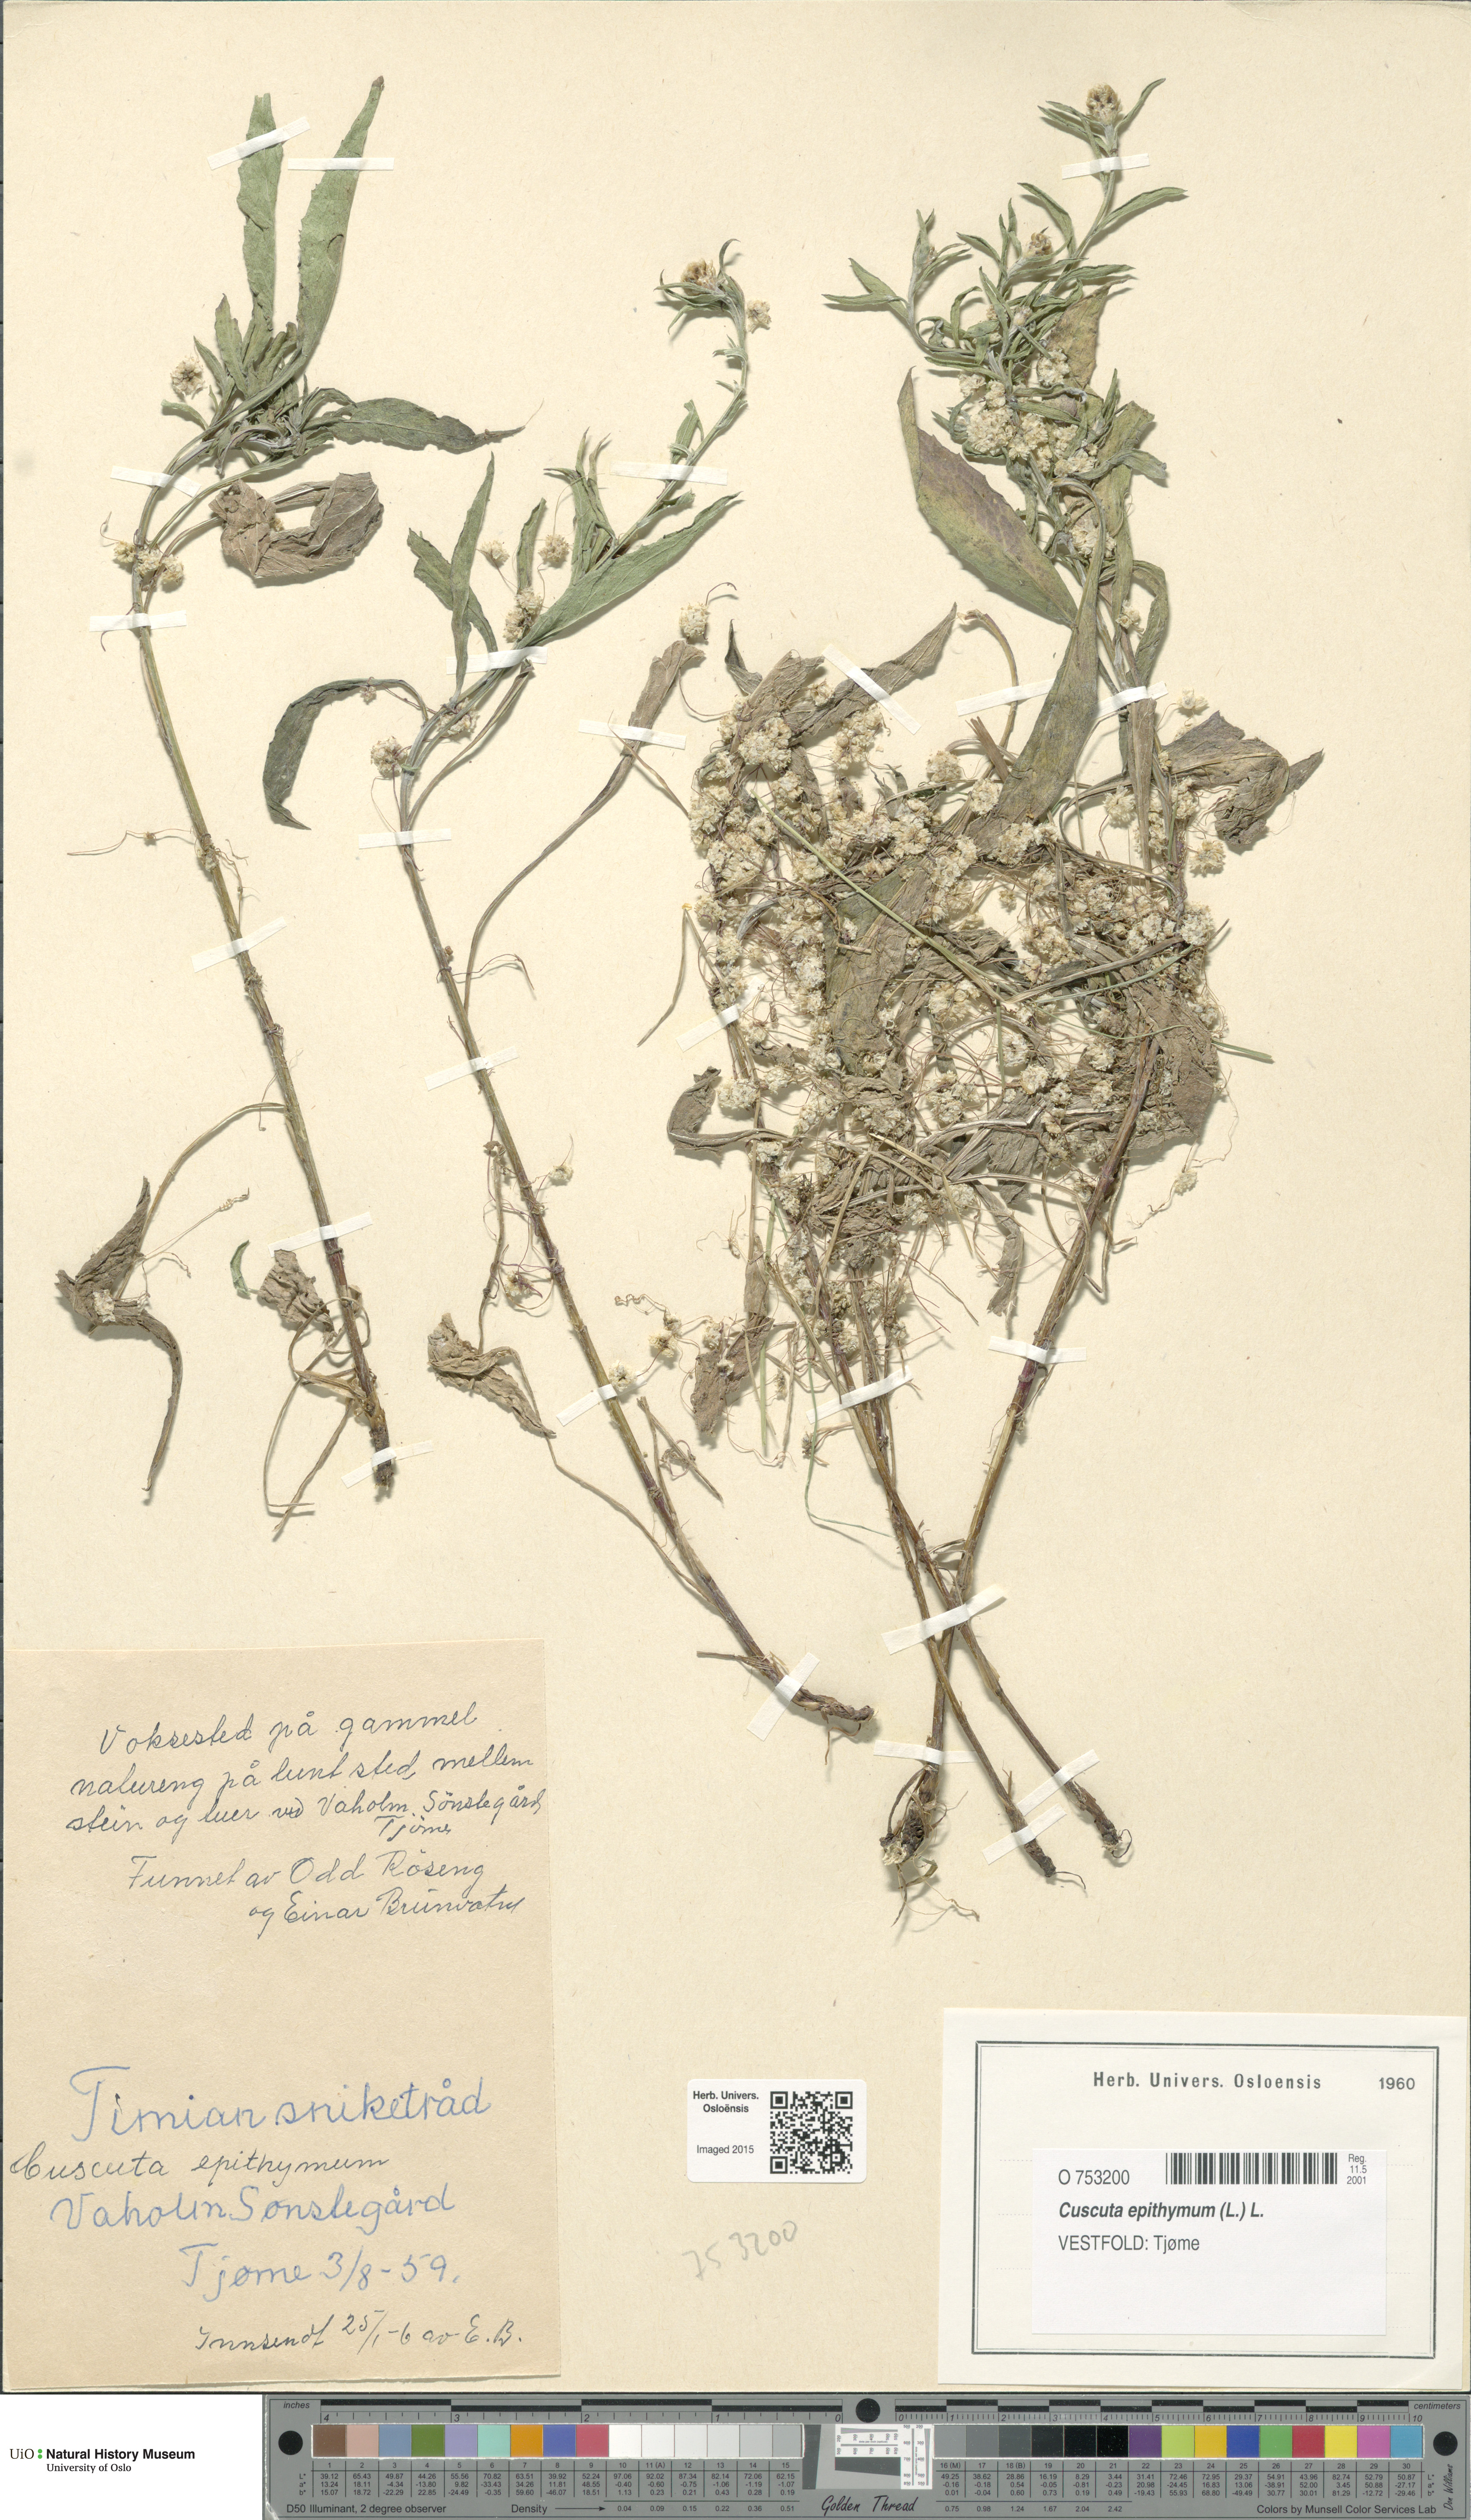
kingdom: Plantae
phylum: Tracheophyta
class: Magnoliopsida
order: Solanales
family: Convolvulaceae
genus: Cuscuta
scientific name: Cuscuta epithymum
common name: Clover dodder
